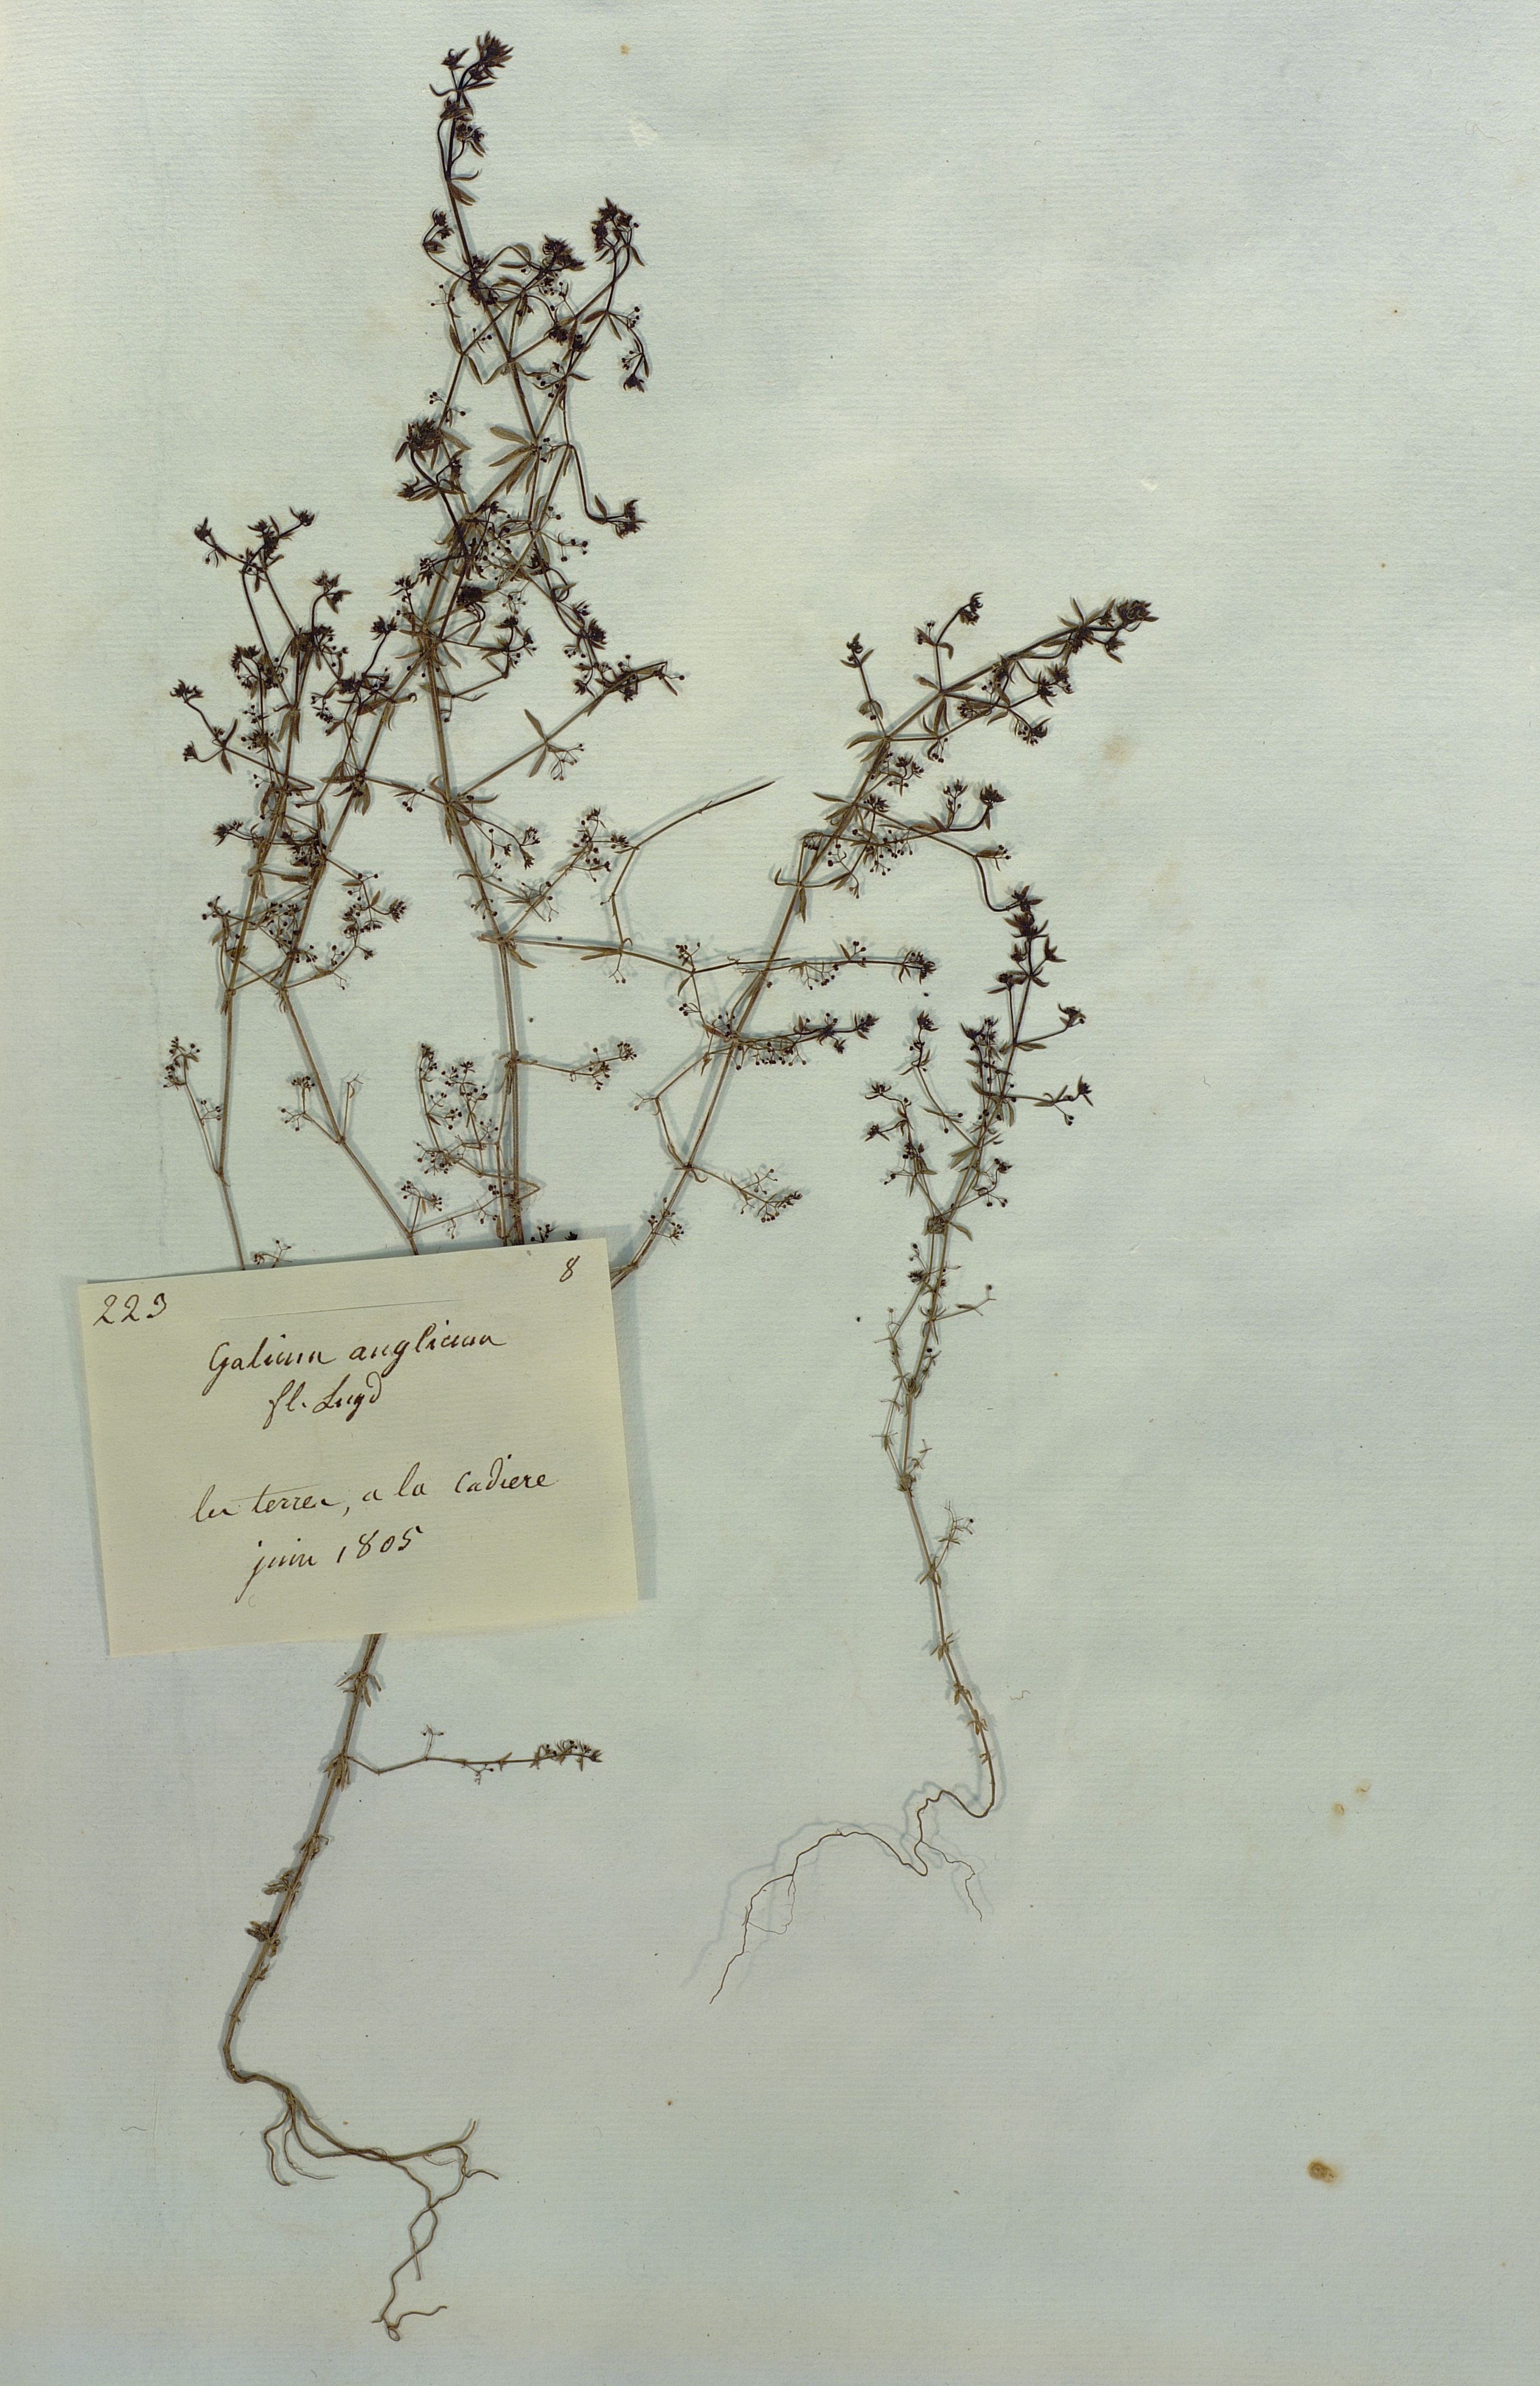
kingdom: Plantae
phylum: Tracheophyta
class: Magnoliopsida
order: Gentianales
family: Rubiaceae
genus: Galium
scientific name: Galium anglicum
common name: English bedstraw
